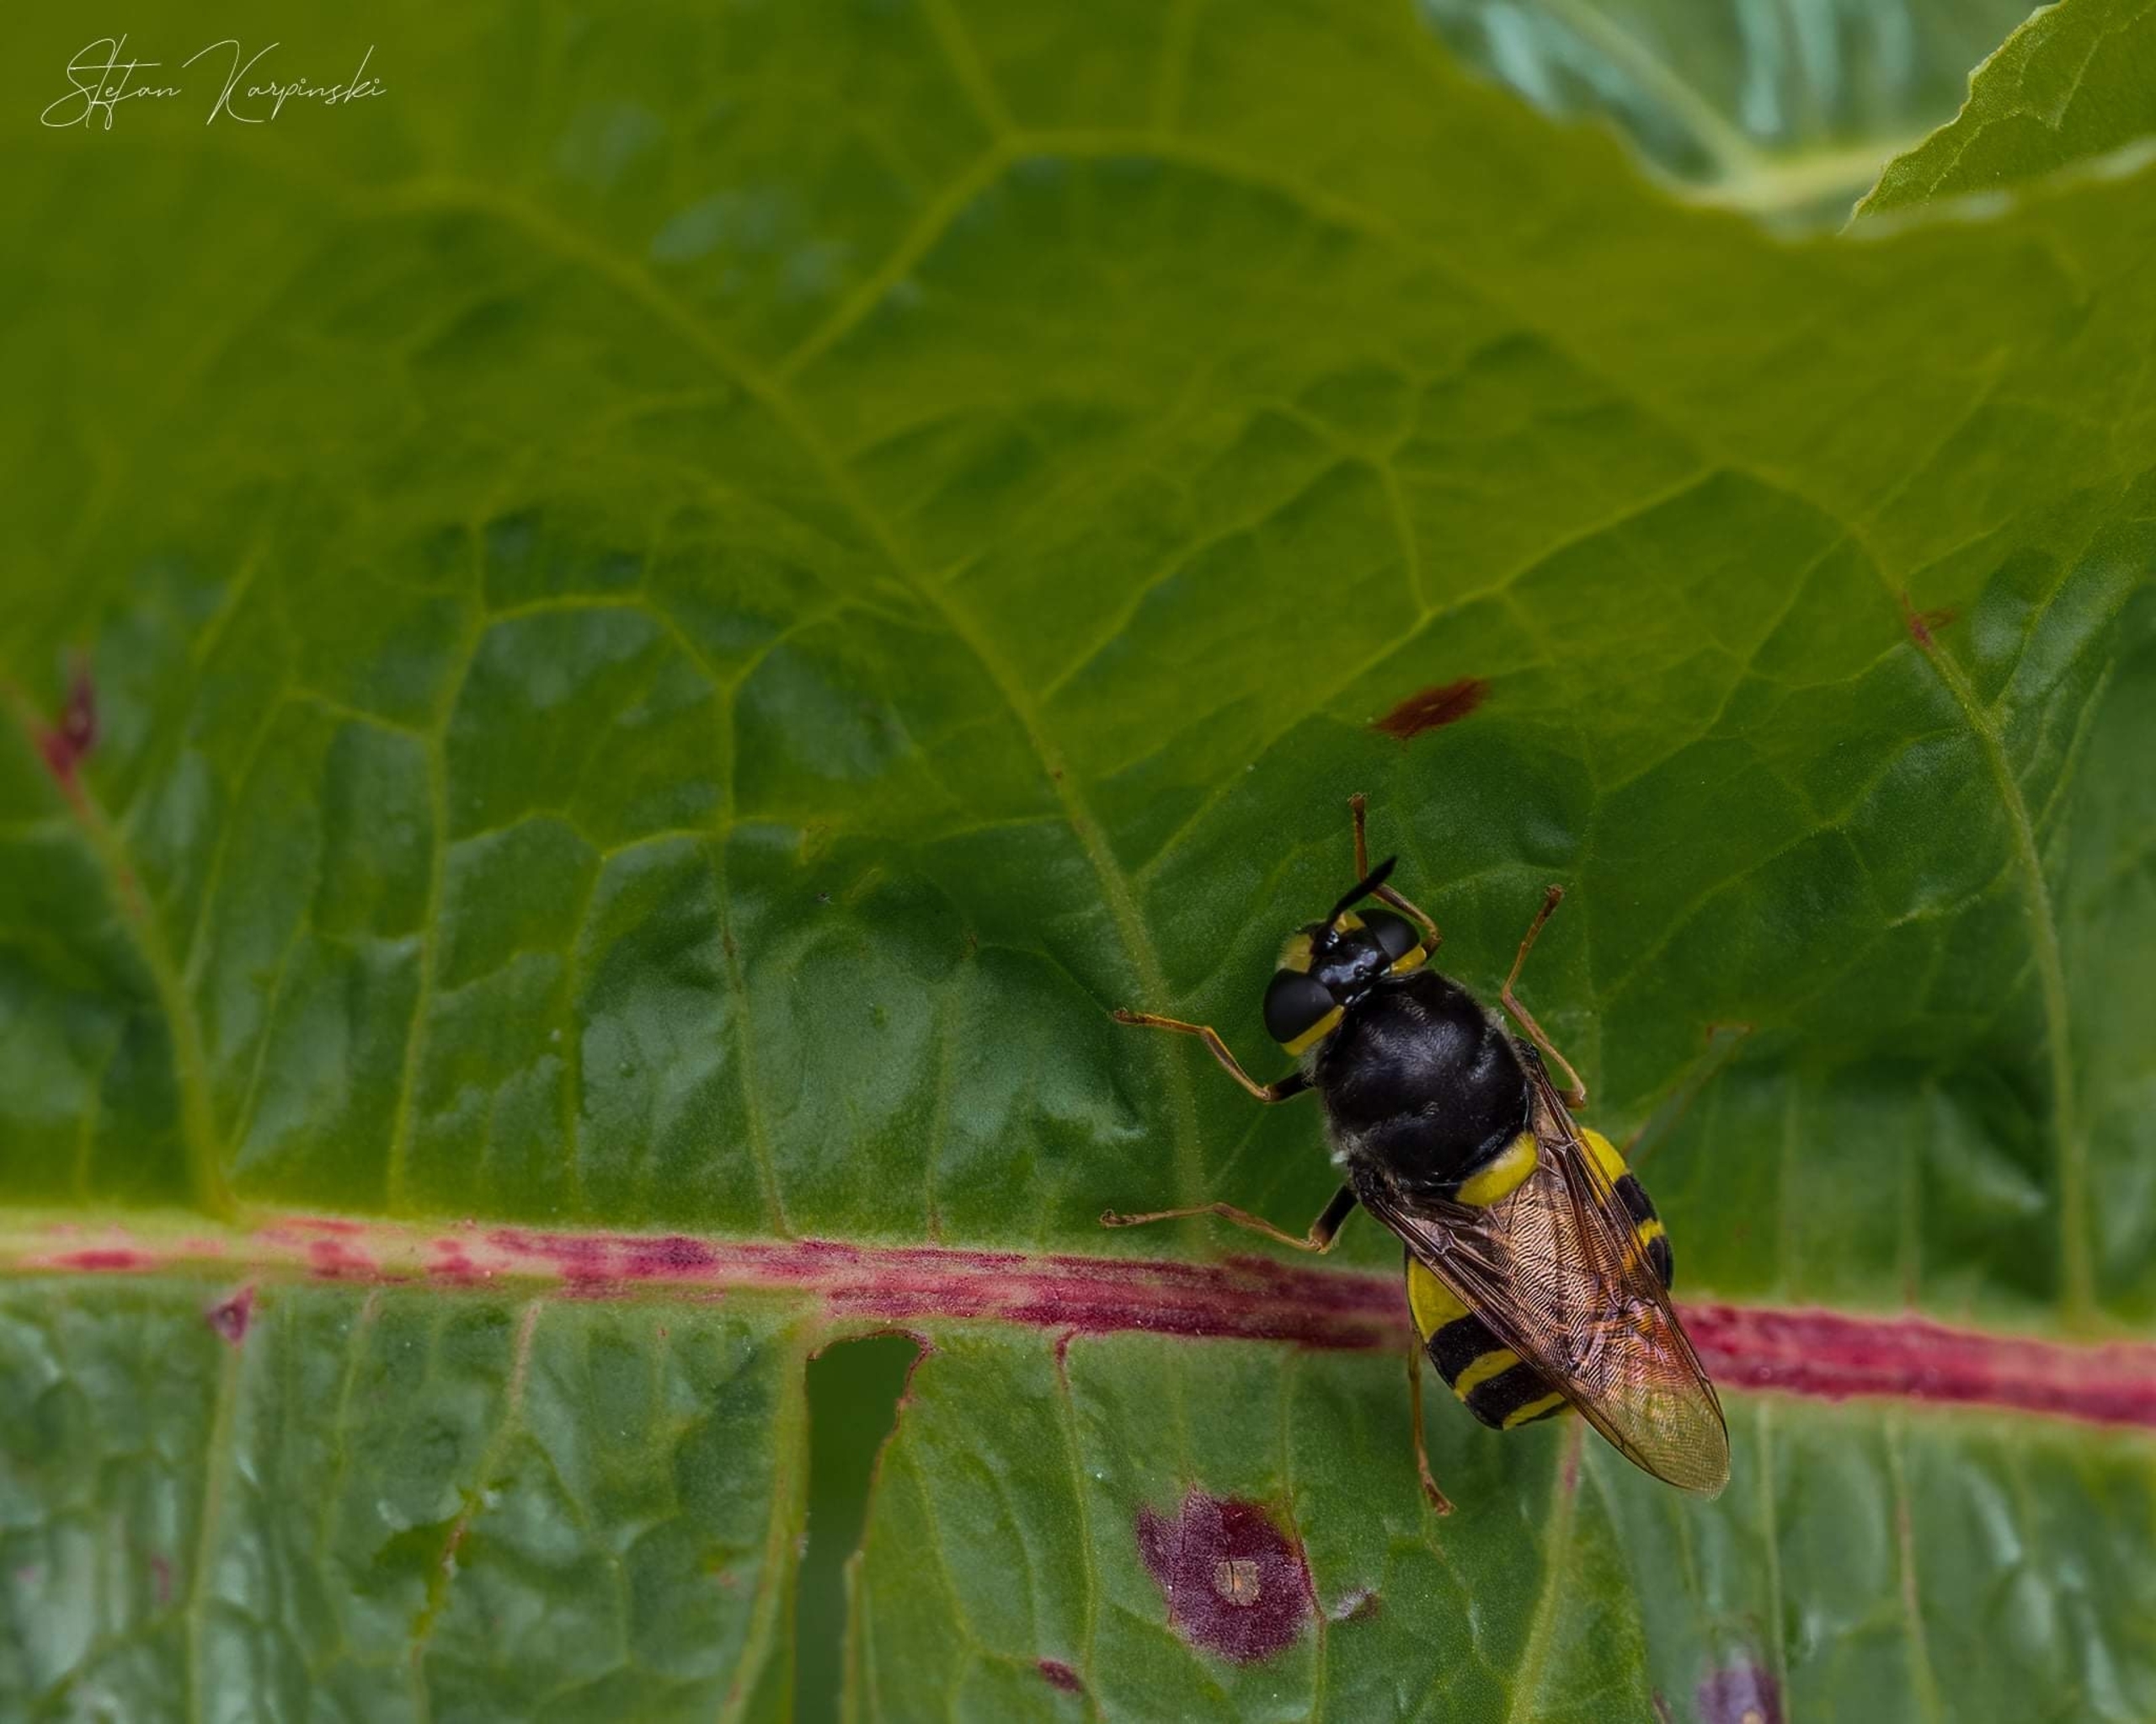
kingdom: Animalia
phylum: Arthropoda
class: Insecta
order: Diptera
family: Stratiomyidae
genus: Stratiomys
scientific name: Stratiomys potamida
